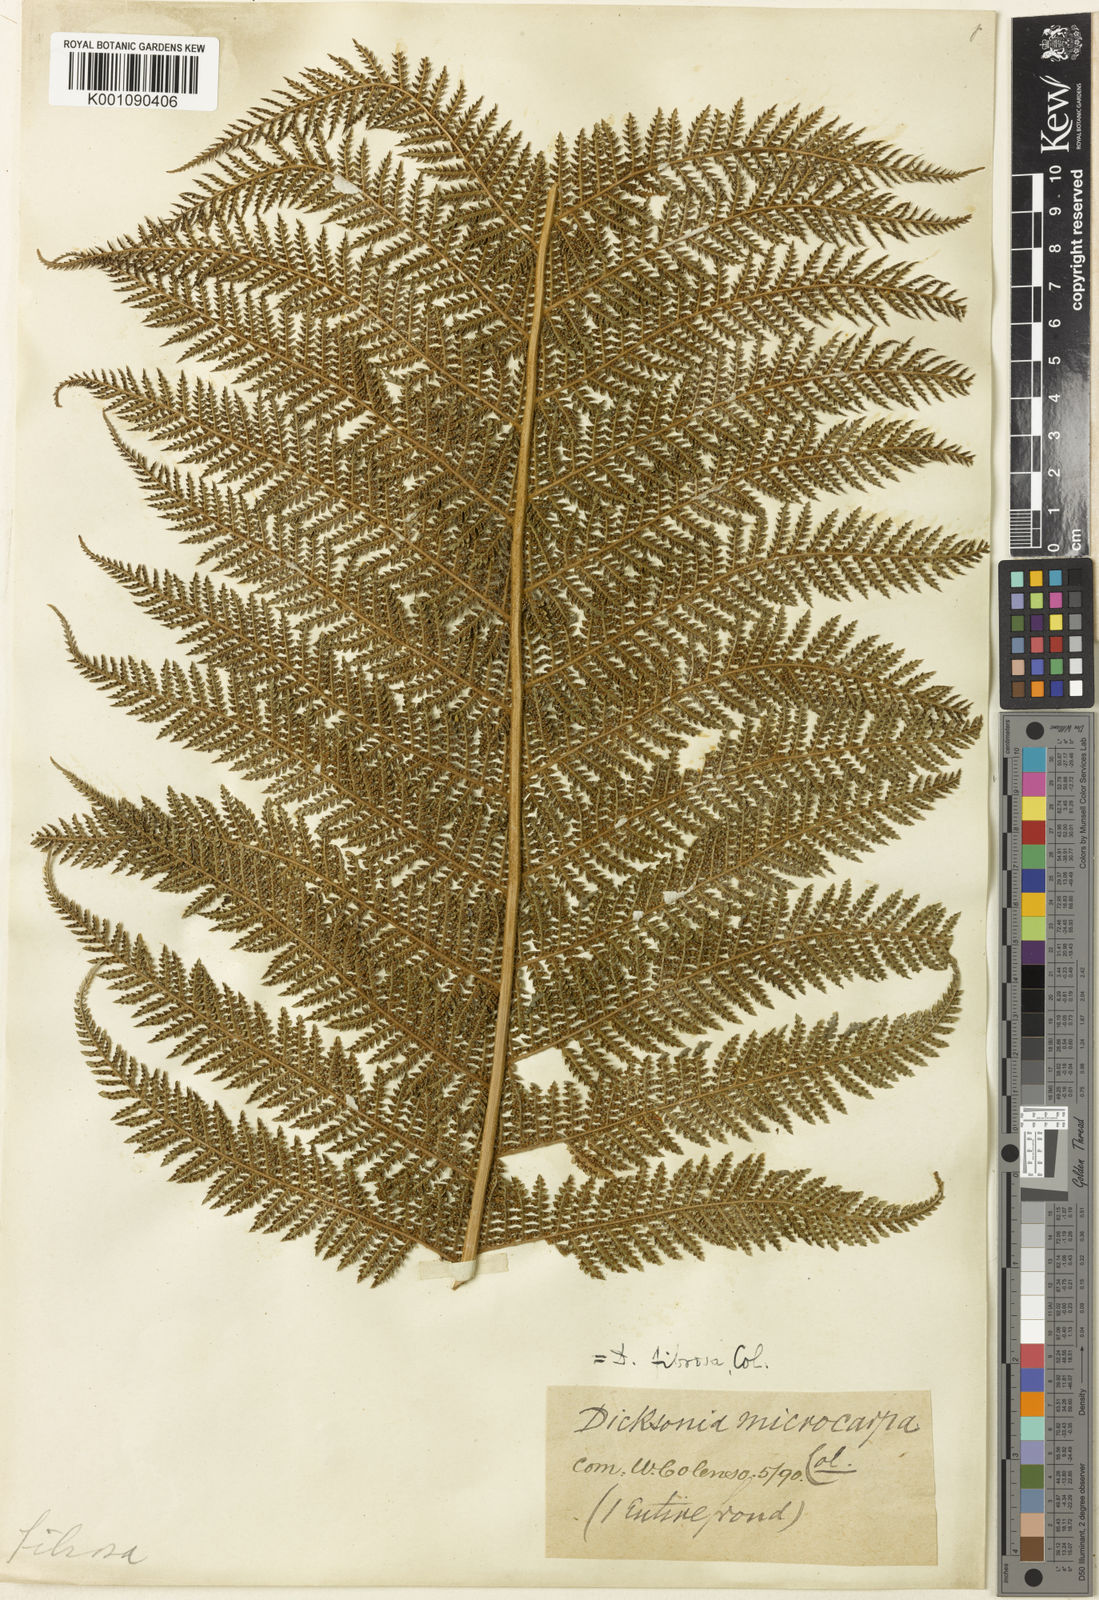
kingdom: Plantae
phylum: Tracheophyta
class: Polypodiopsida
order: Cyatheales
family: Dicksoniaceae
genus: Dicksonia
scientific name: Dicksonia fibrosa
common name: Golden tree fern
